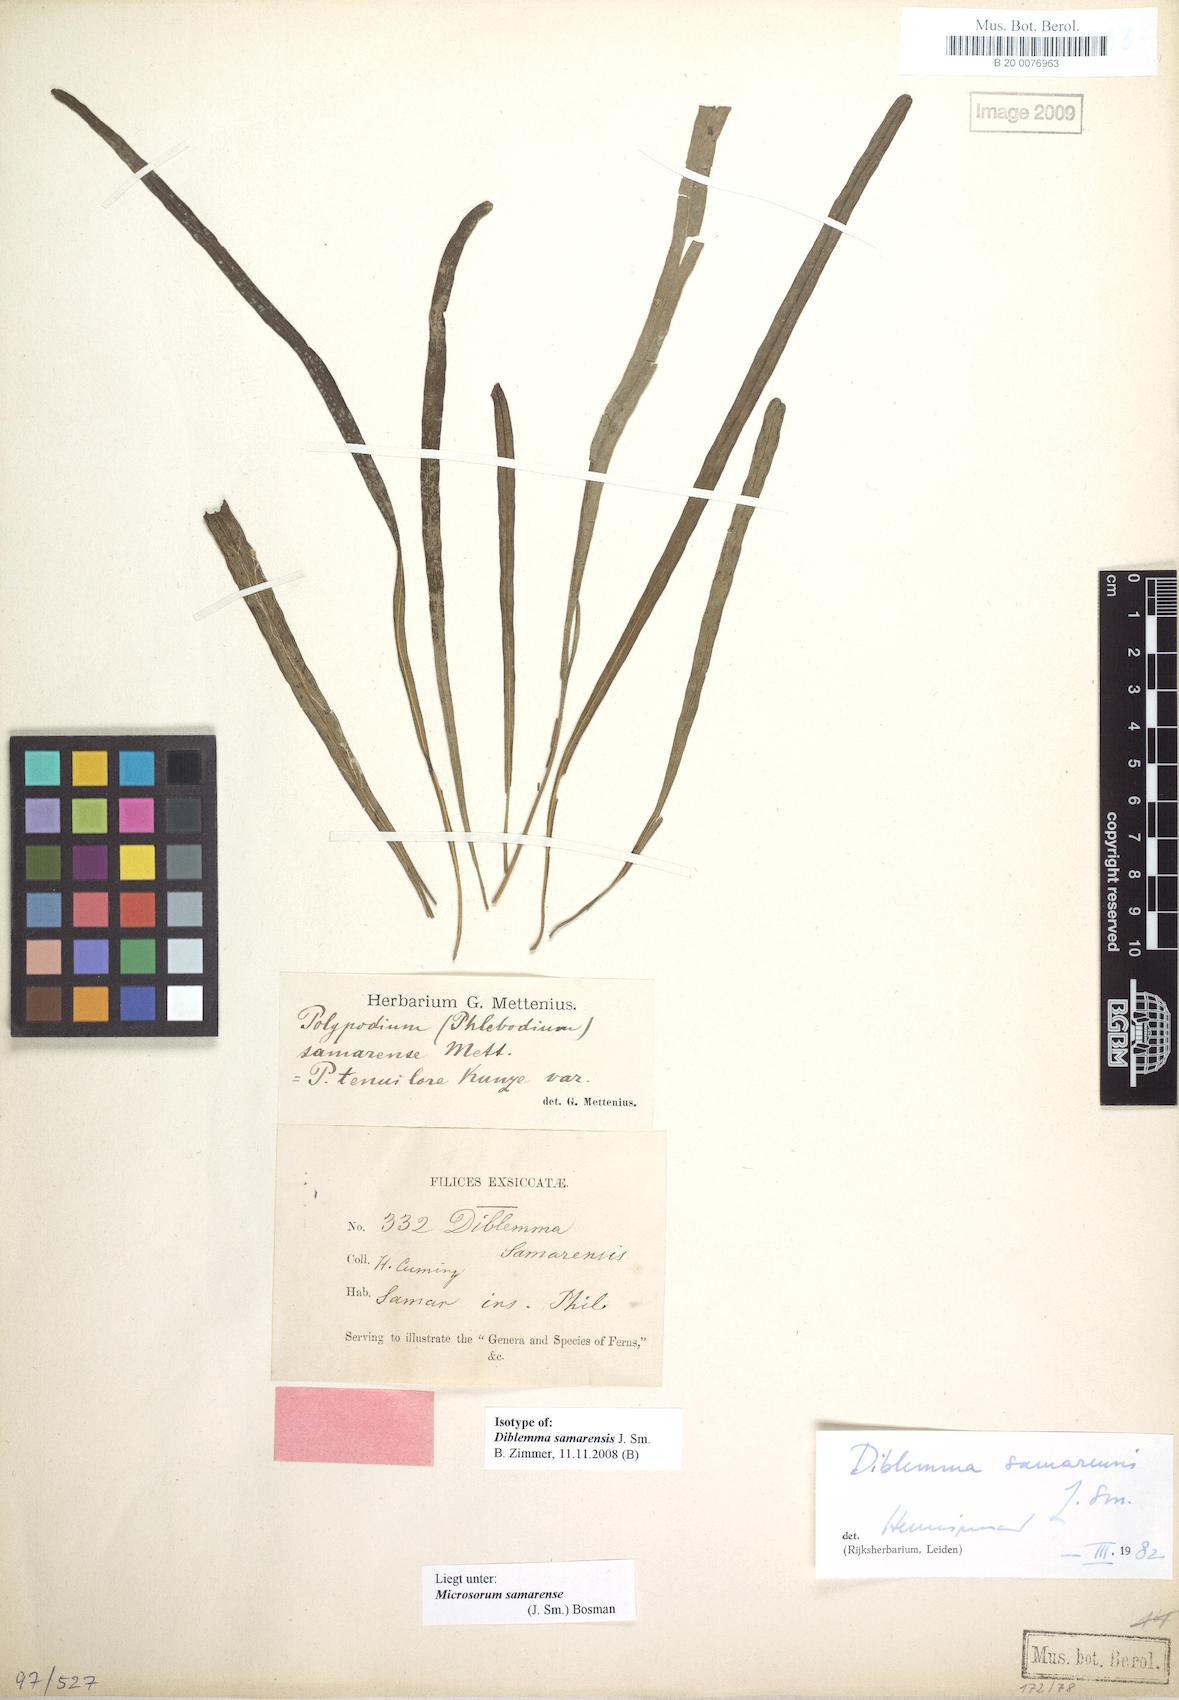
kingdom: Plantae
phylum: Tracheophyta
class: Polypodiopsida
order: Polypodiales
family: Polypodiaceae
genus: Microsorum
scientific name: Microsorum samarense
